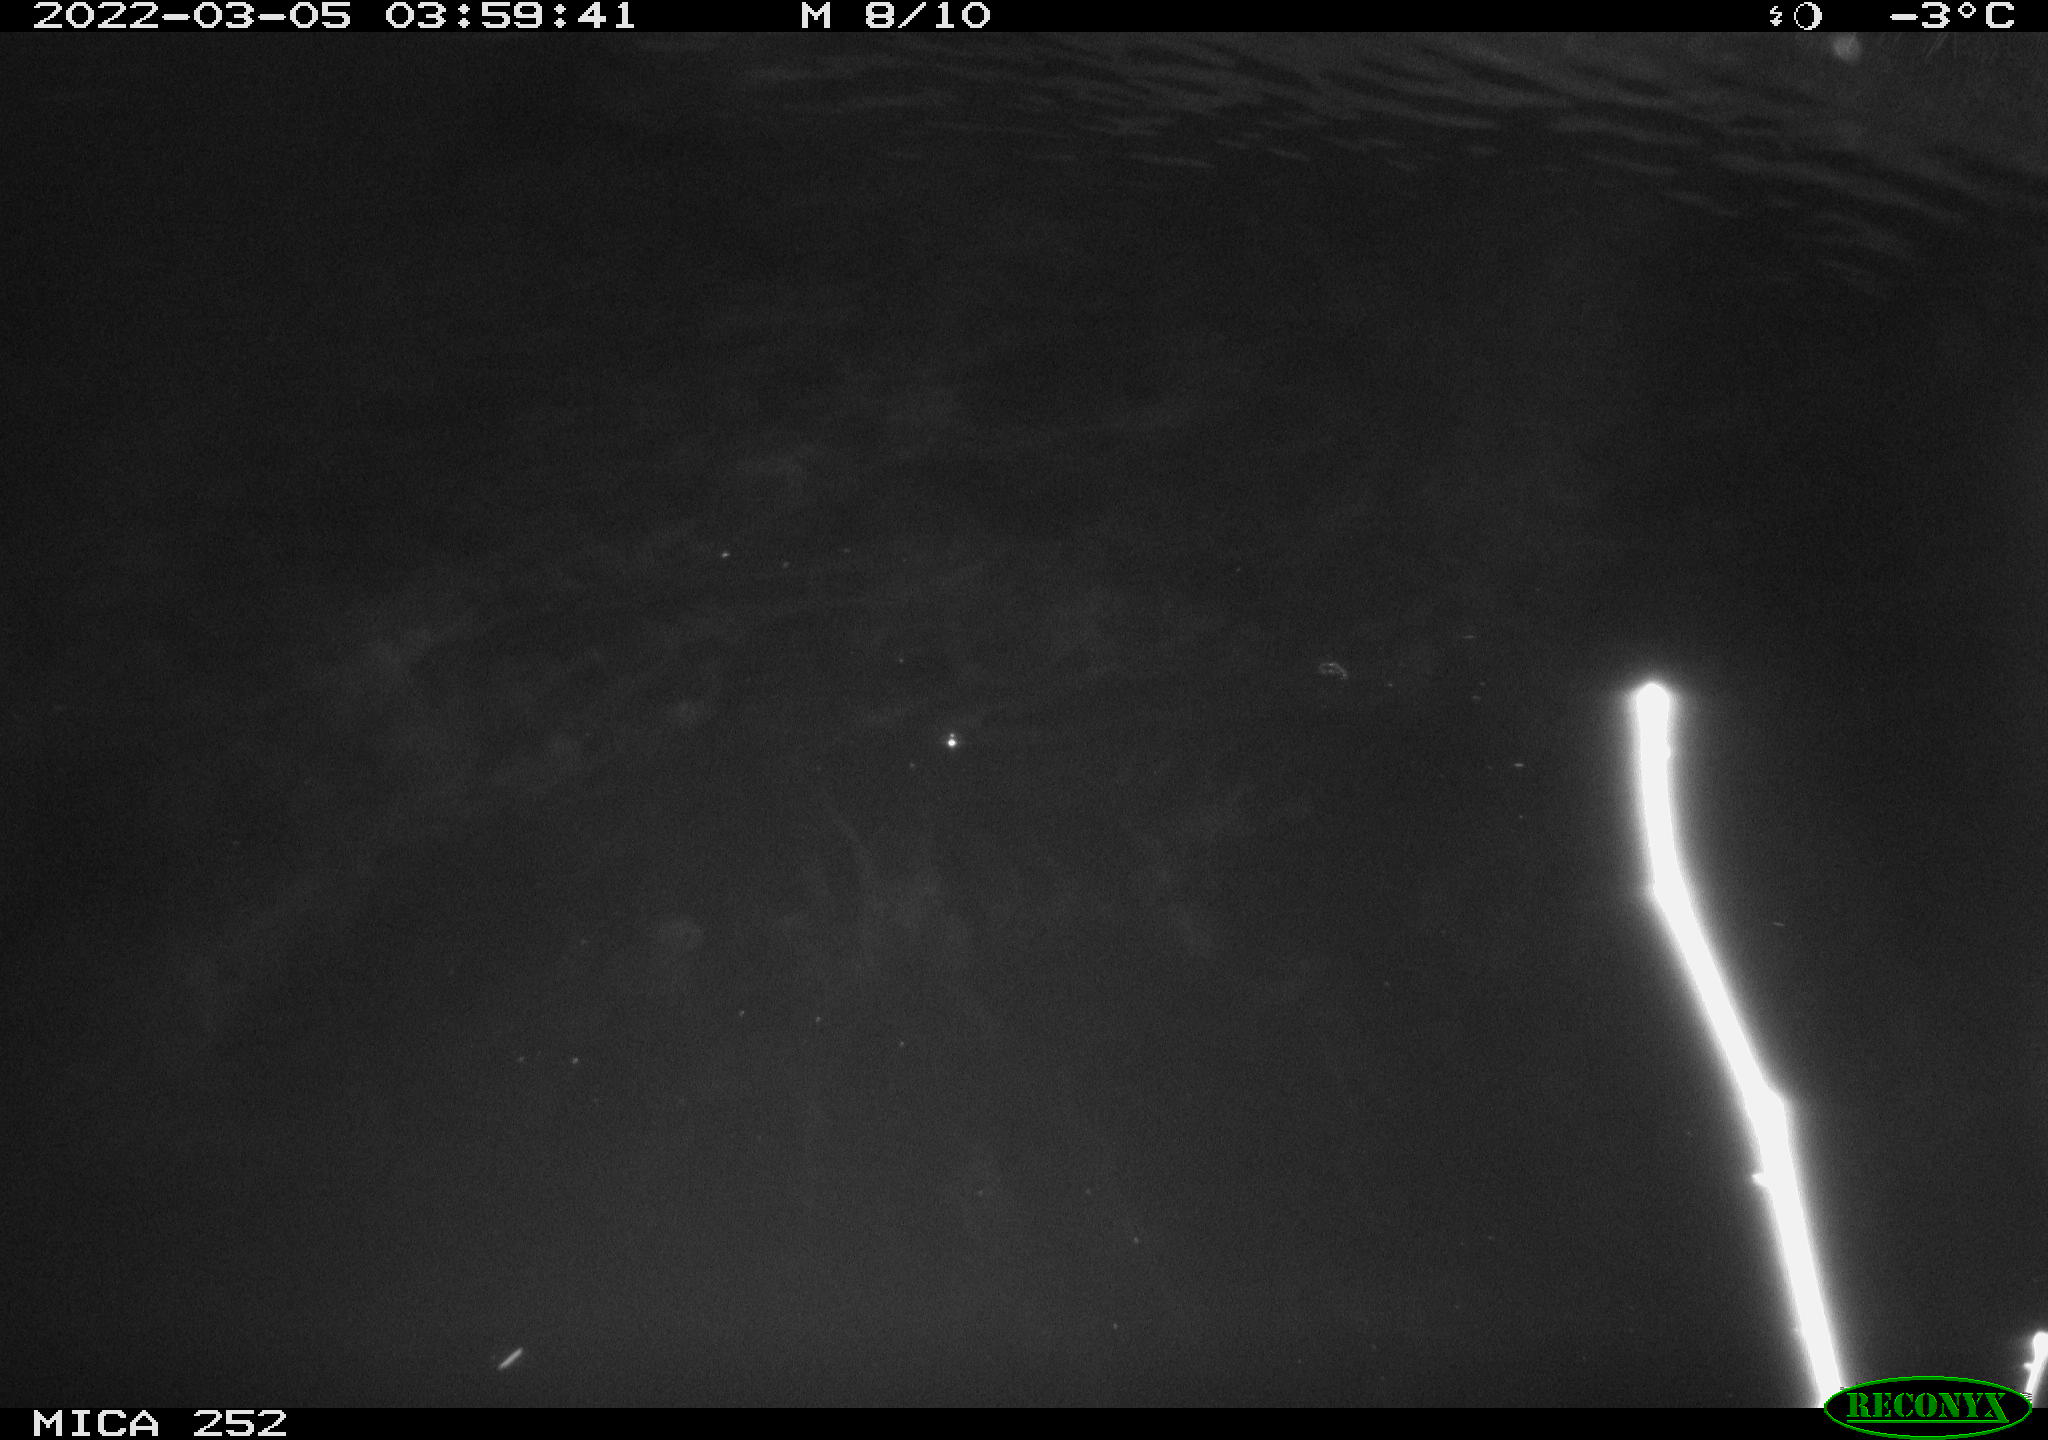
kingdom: Animalia
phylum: Chordata
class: Mammalia
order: Rodentia
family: Castoridae
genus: Castor
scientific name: Castor fiber
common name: Eurasian beaver
